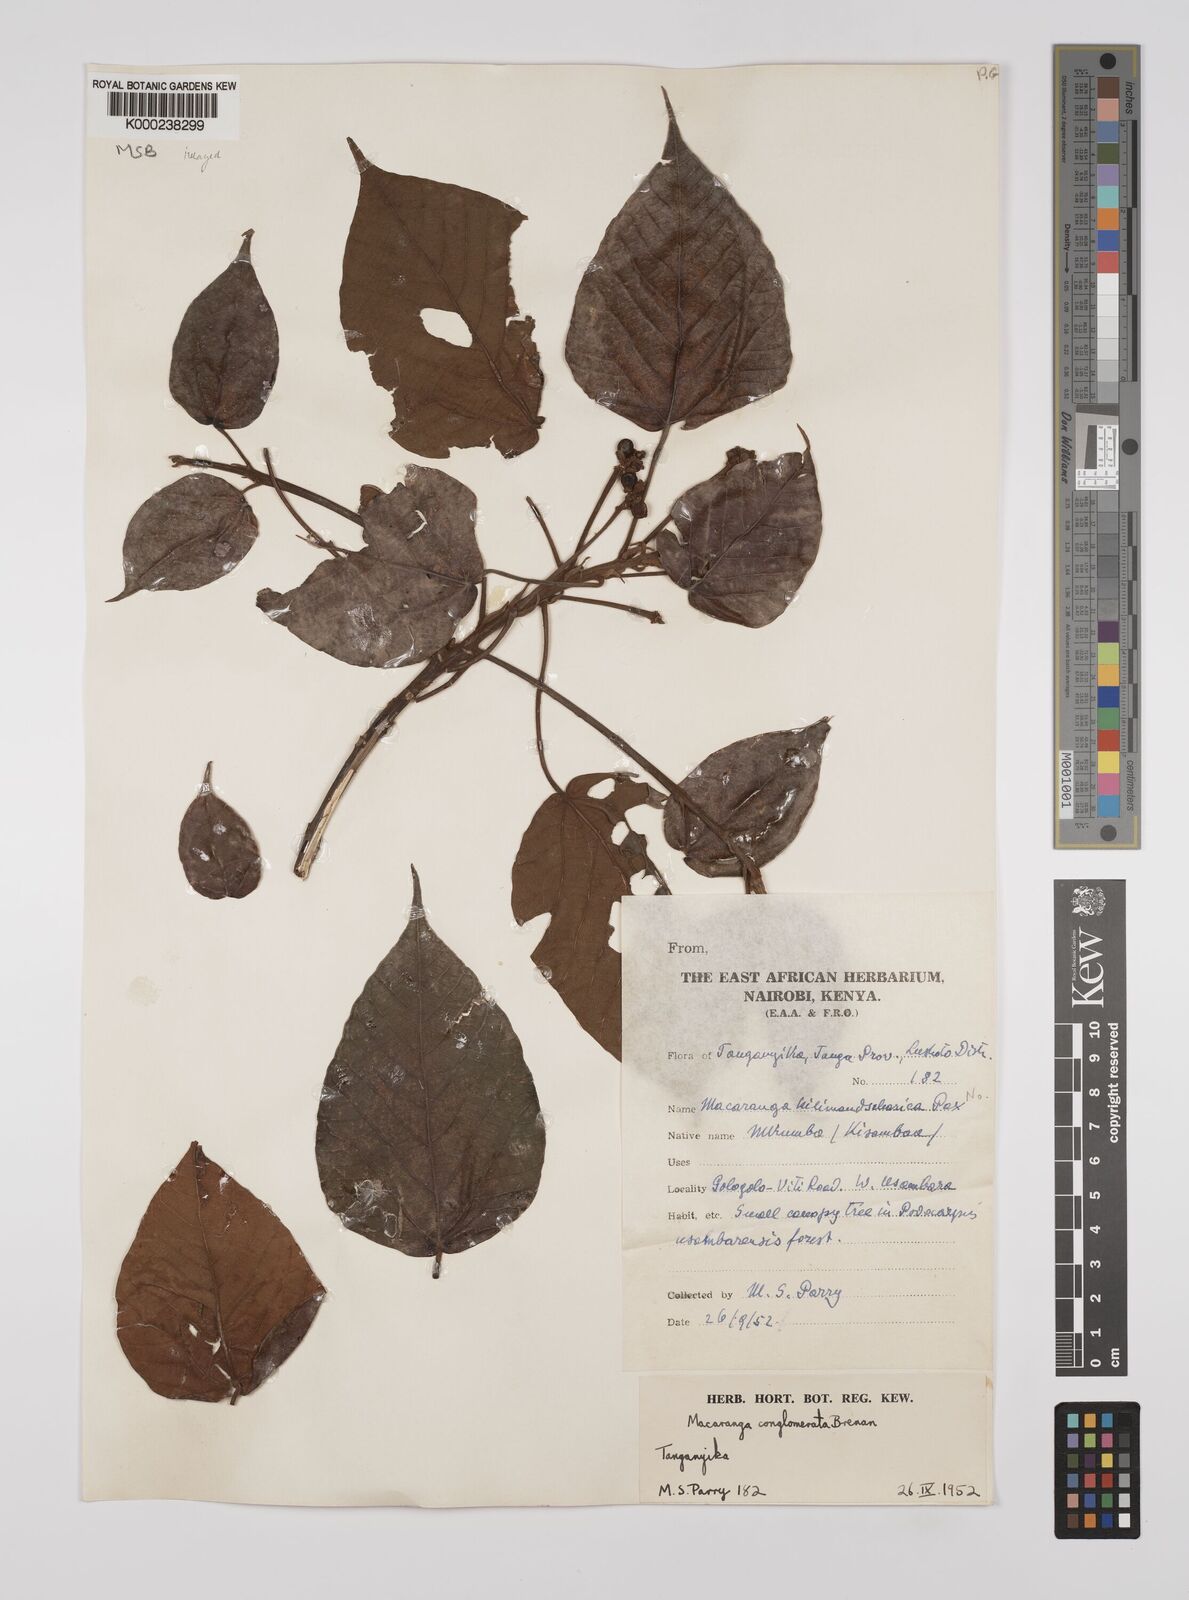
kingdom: Plantae
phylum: Tracheophyta
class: Magnoliopsida
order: Malpighiales
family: Euphorbiaceae
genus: Macaranga
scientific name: Macaranga conglomerata
